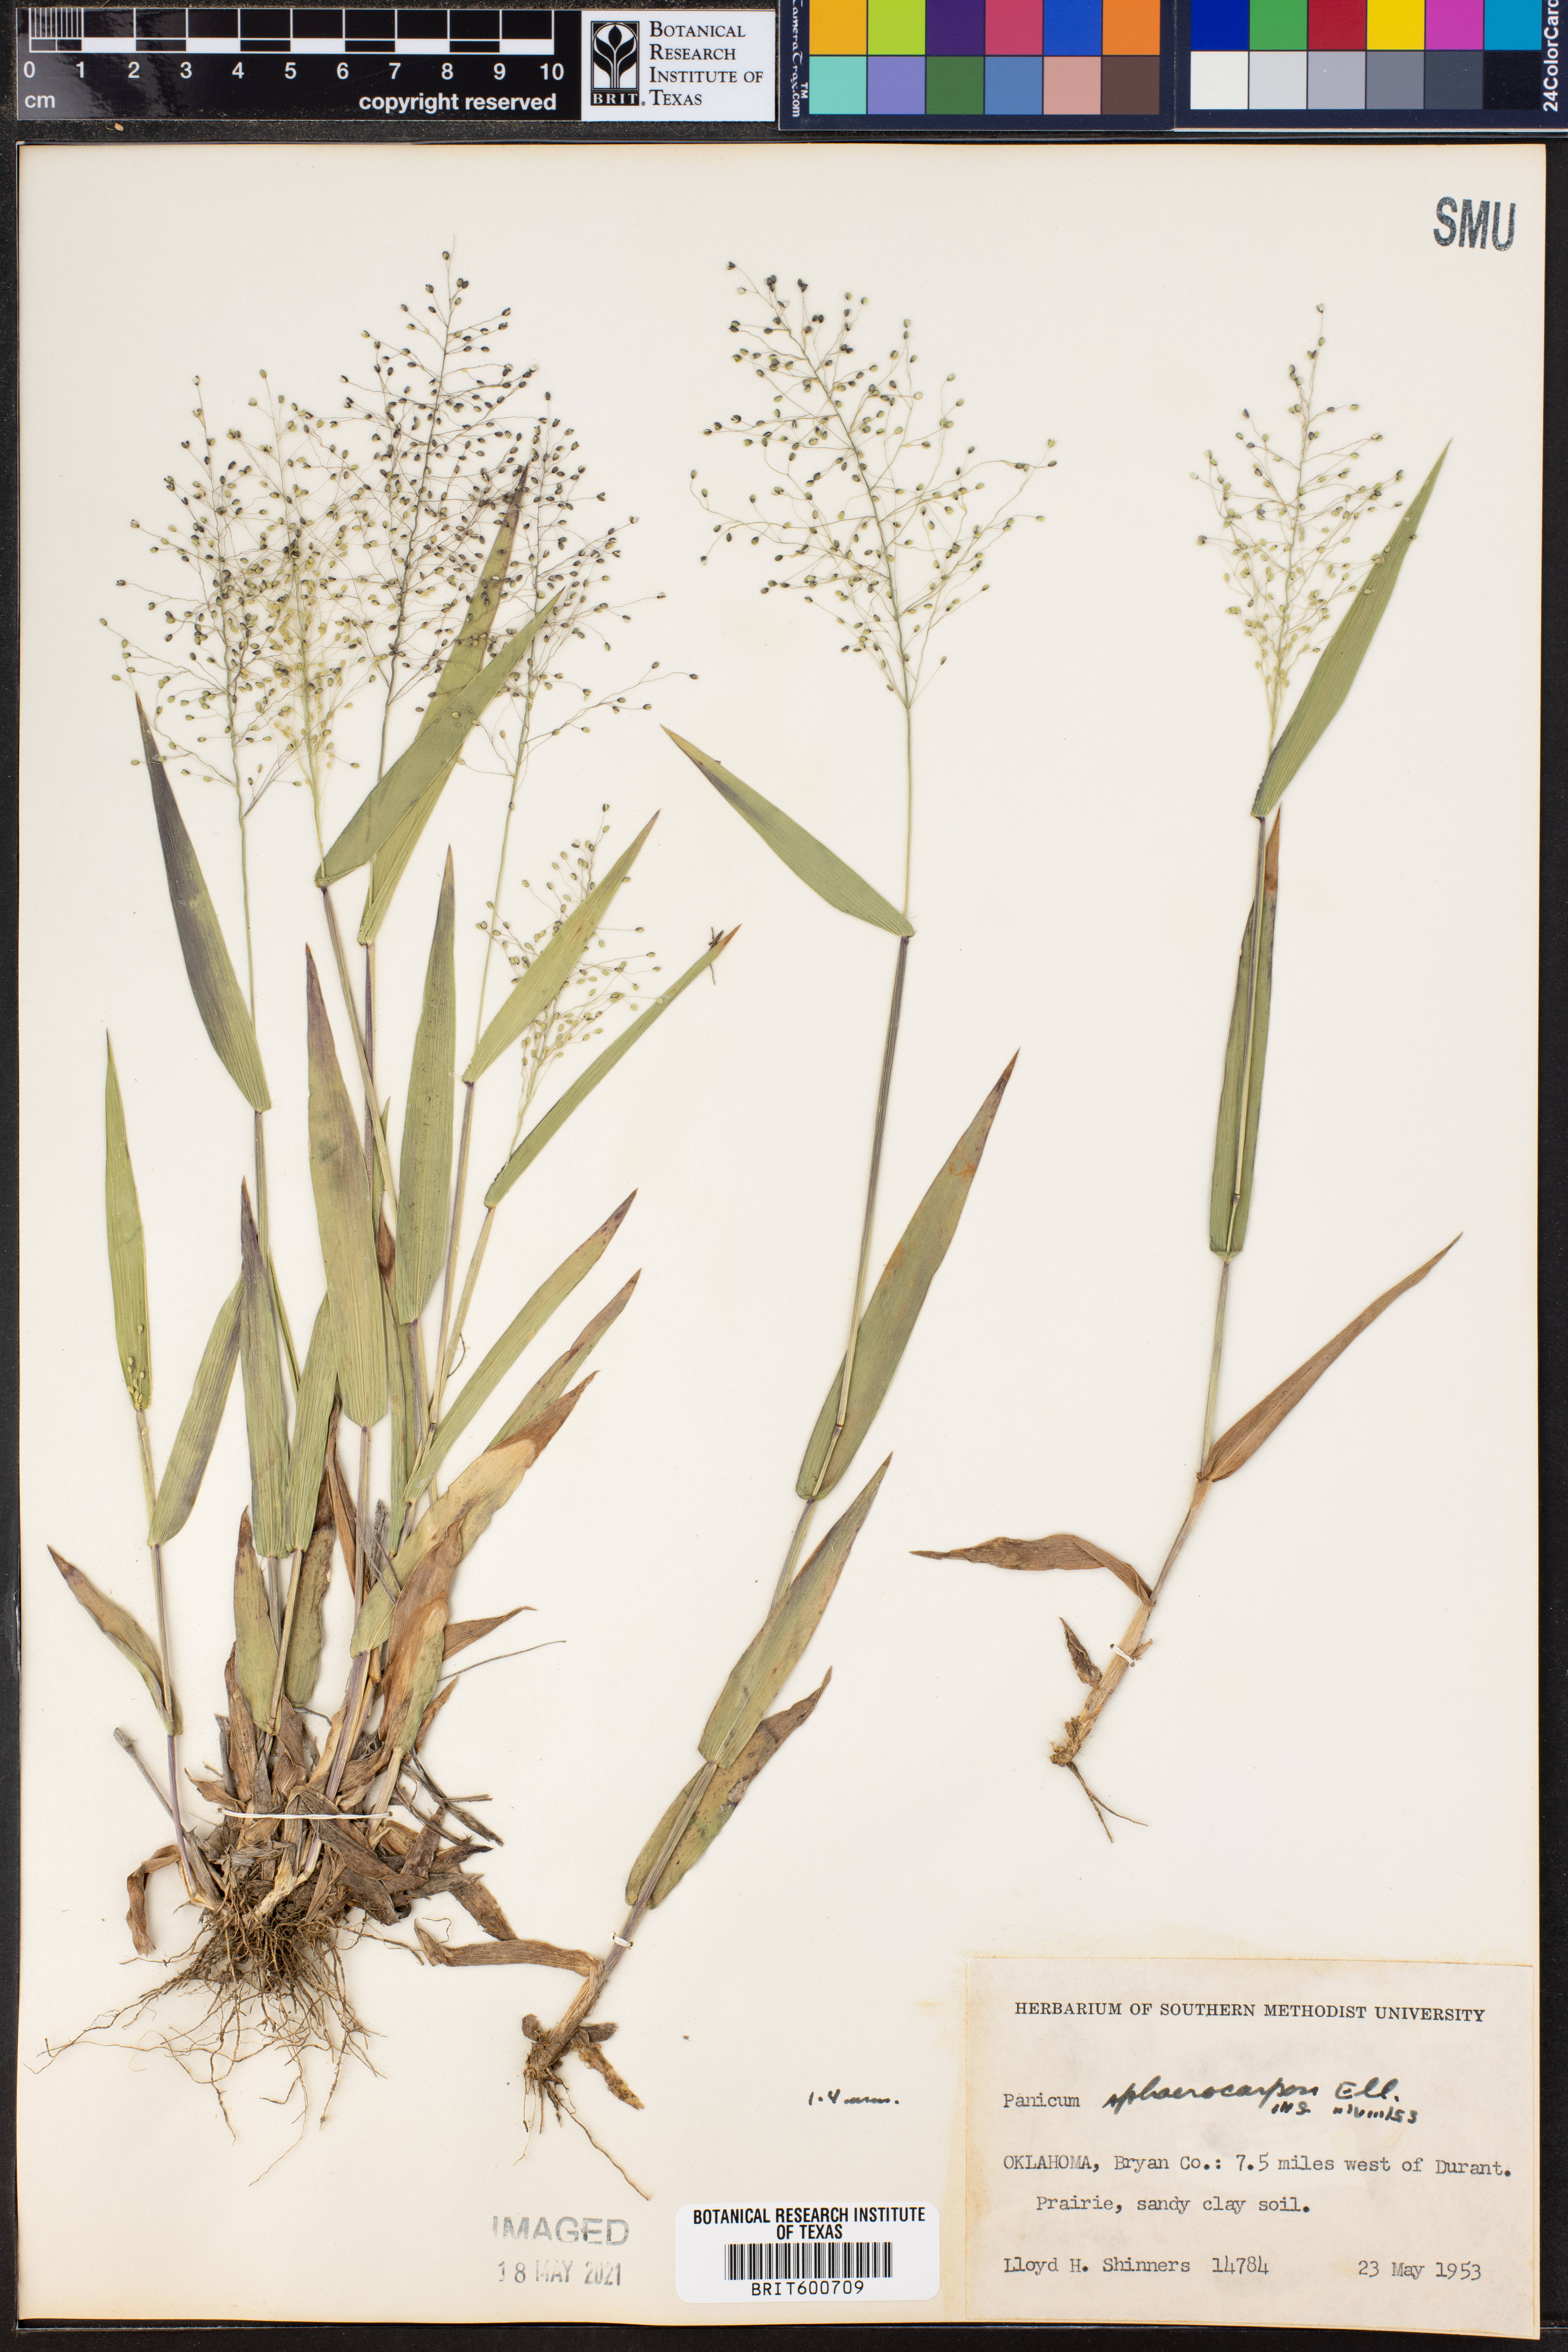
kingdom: Plantae
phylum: Tracheophyta
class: Liliopsida
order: Poales
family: Poaceae
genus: Dichanthelium
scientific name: Dichanthelium sphaerocarpon
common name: Round-fruited panicgrass
